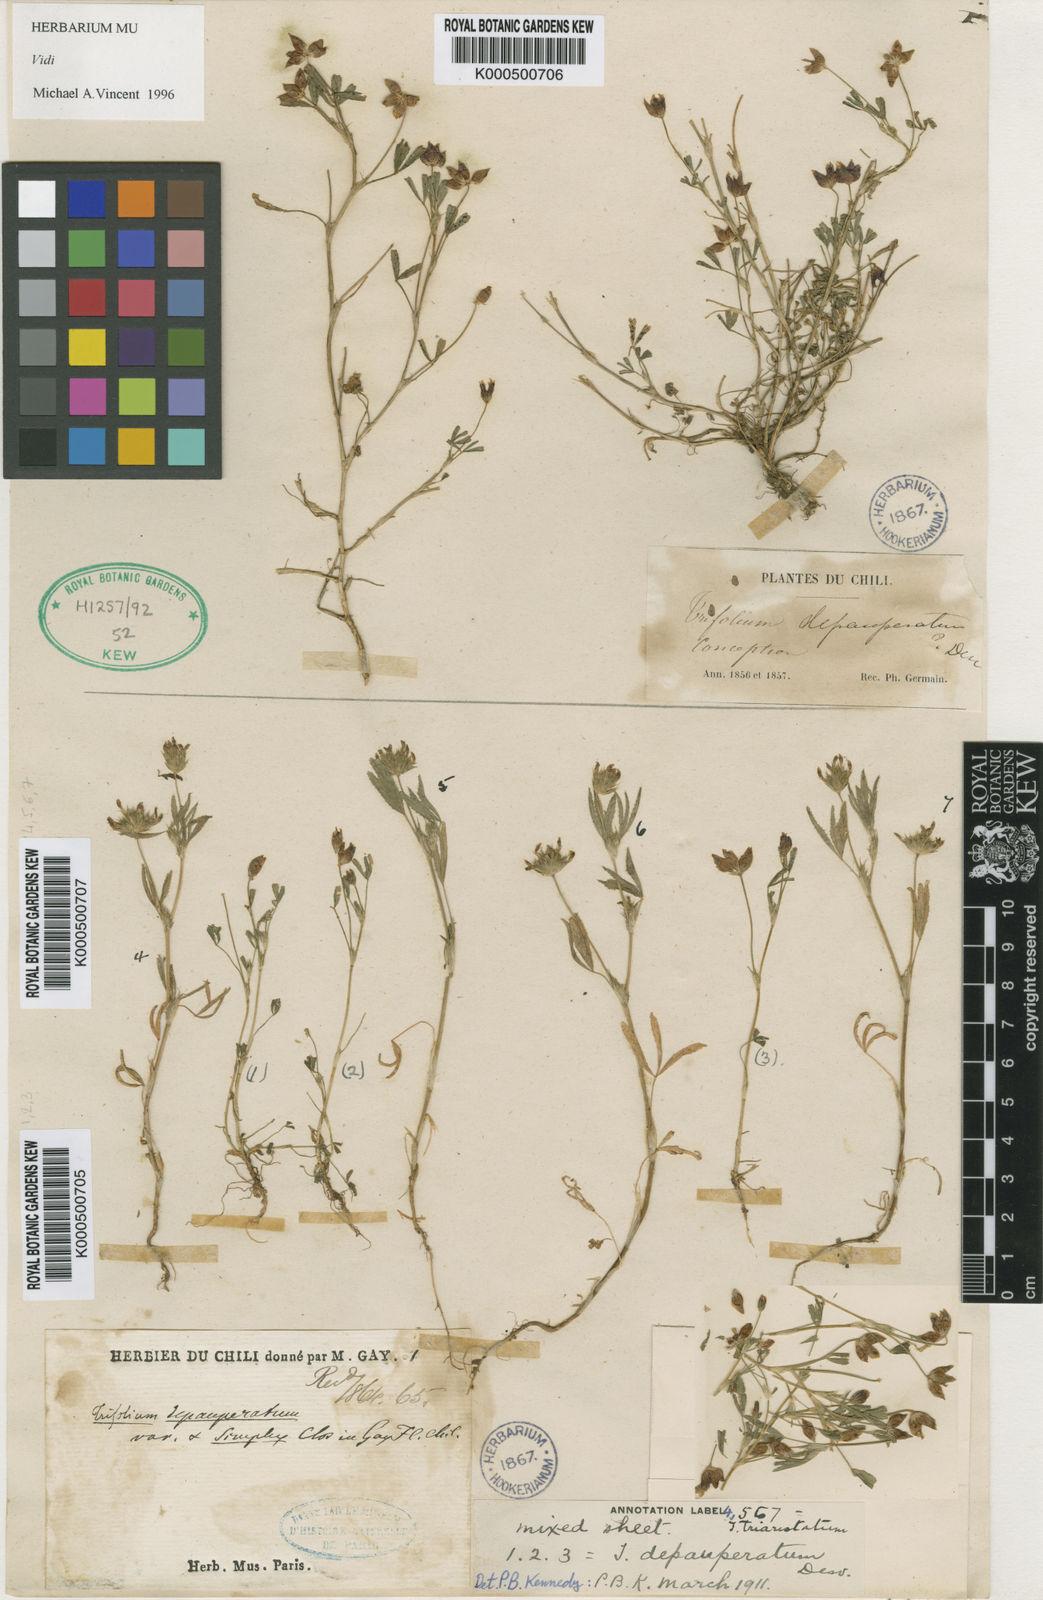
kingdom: Plantae
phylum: Tracheophyta
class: Magnoliopsida
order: Fabales
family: Fabaceae
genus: Trifolium
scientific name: Trifolium depauperatum
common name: Poverty clover
